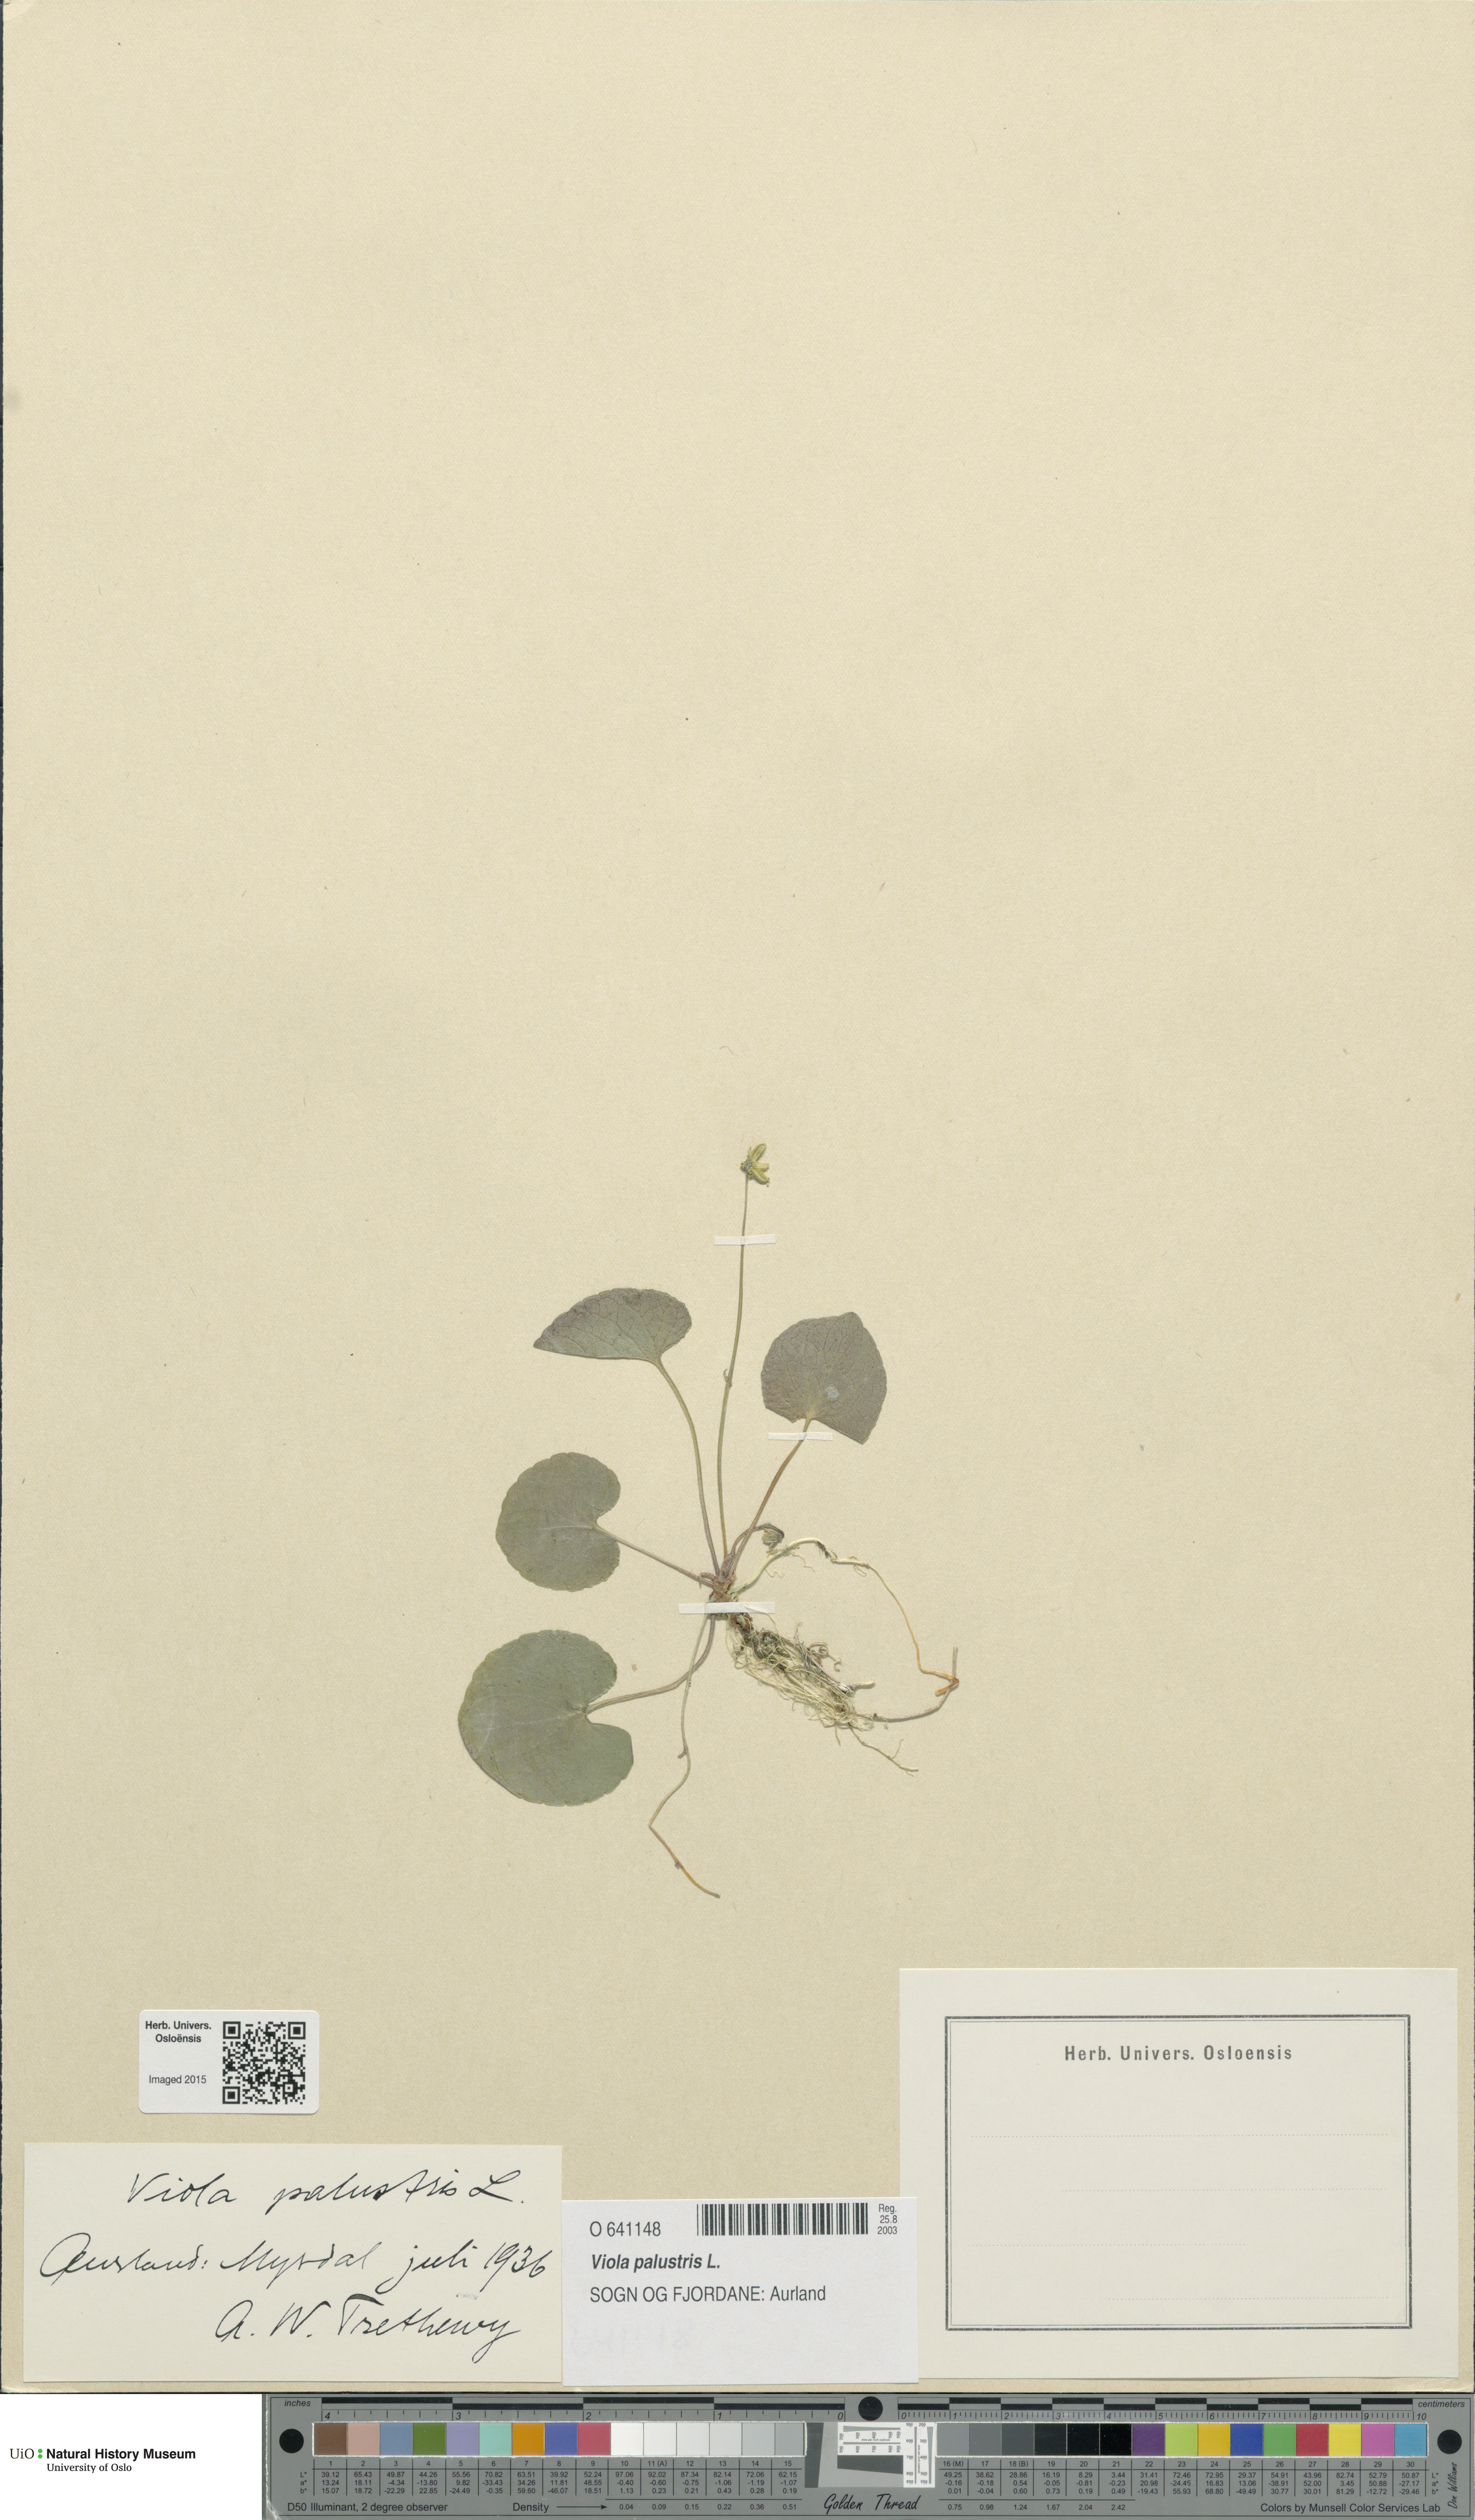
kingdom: Plantae
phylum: Tracheophyta
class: Magnoliopsida
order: Malpighiales
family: Violaceae
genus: Viola
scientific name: Viola palustris
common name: Marsh violet
